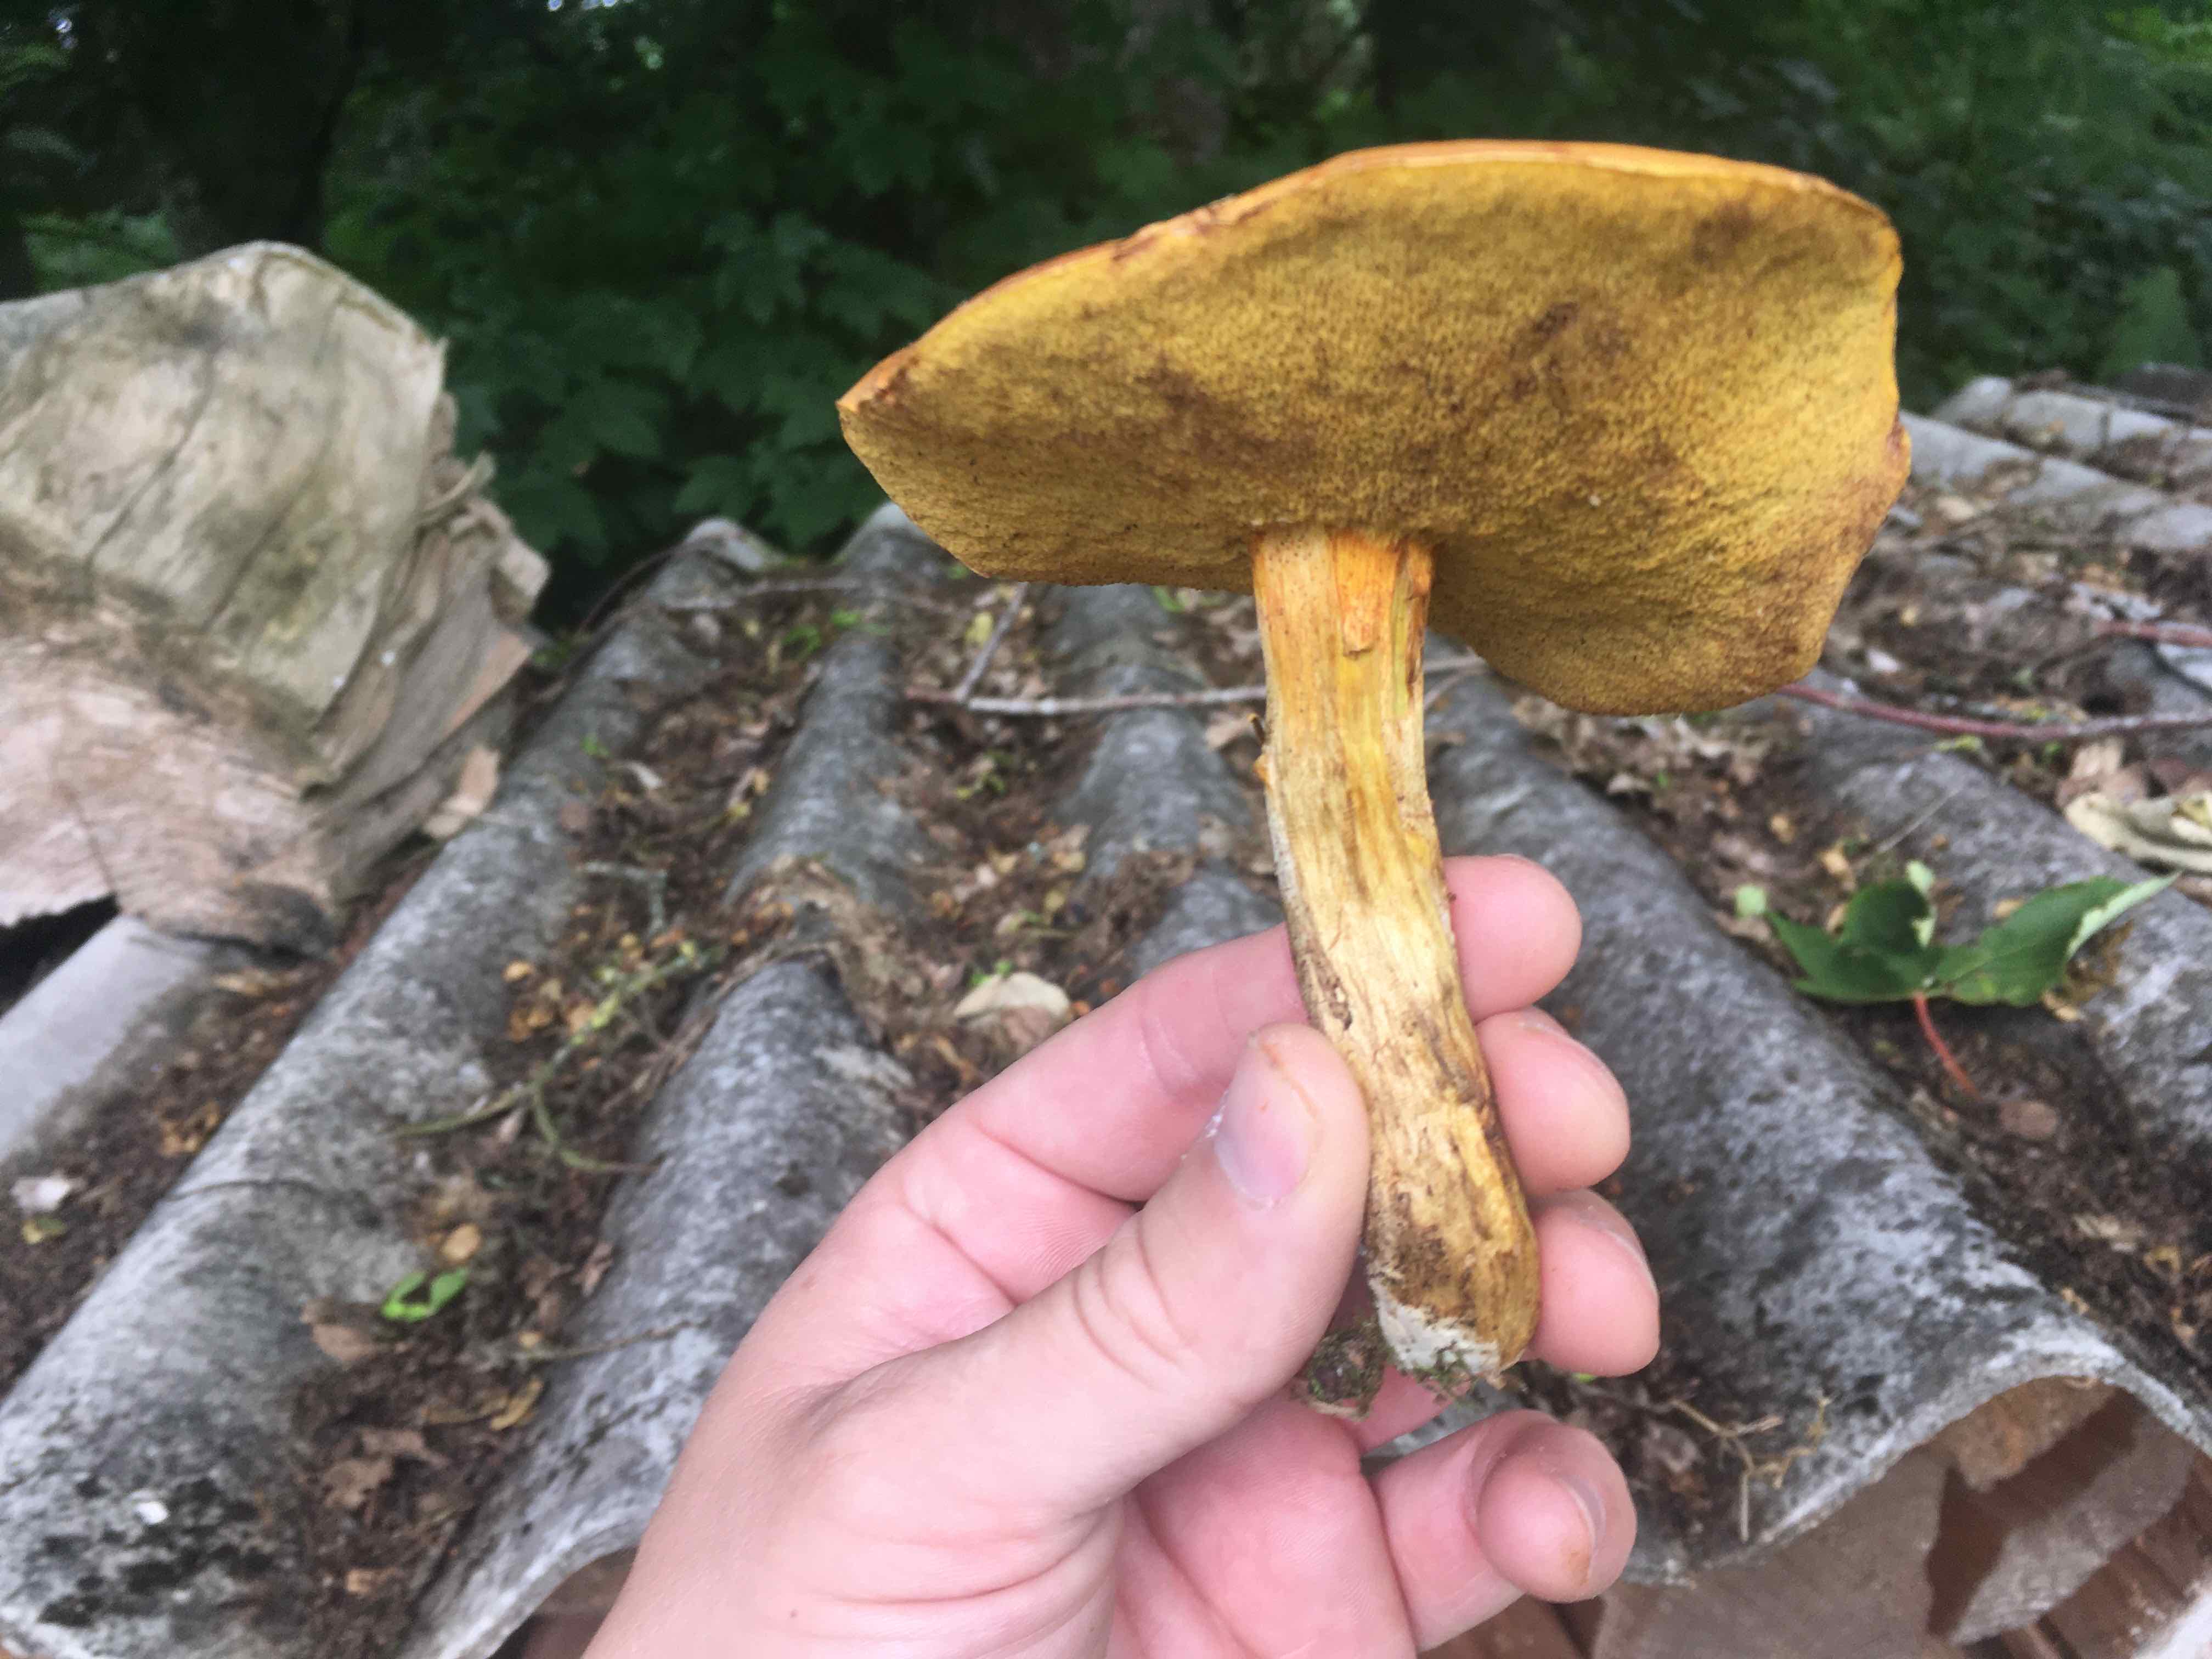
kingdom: Fungi
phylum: Basidiomycota
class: Agaricomycetes
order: Boletales
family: Suillaceae
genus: Suillus
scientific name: Suillus grevillei
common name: lærke-slimrørhat
